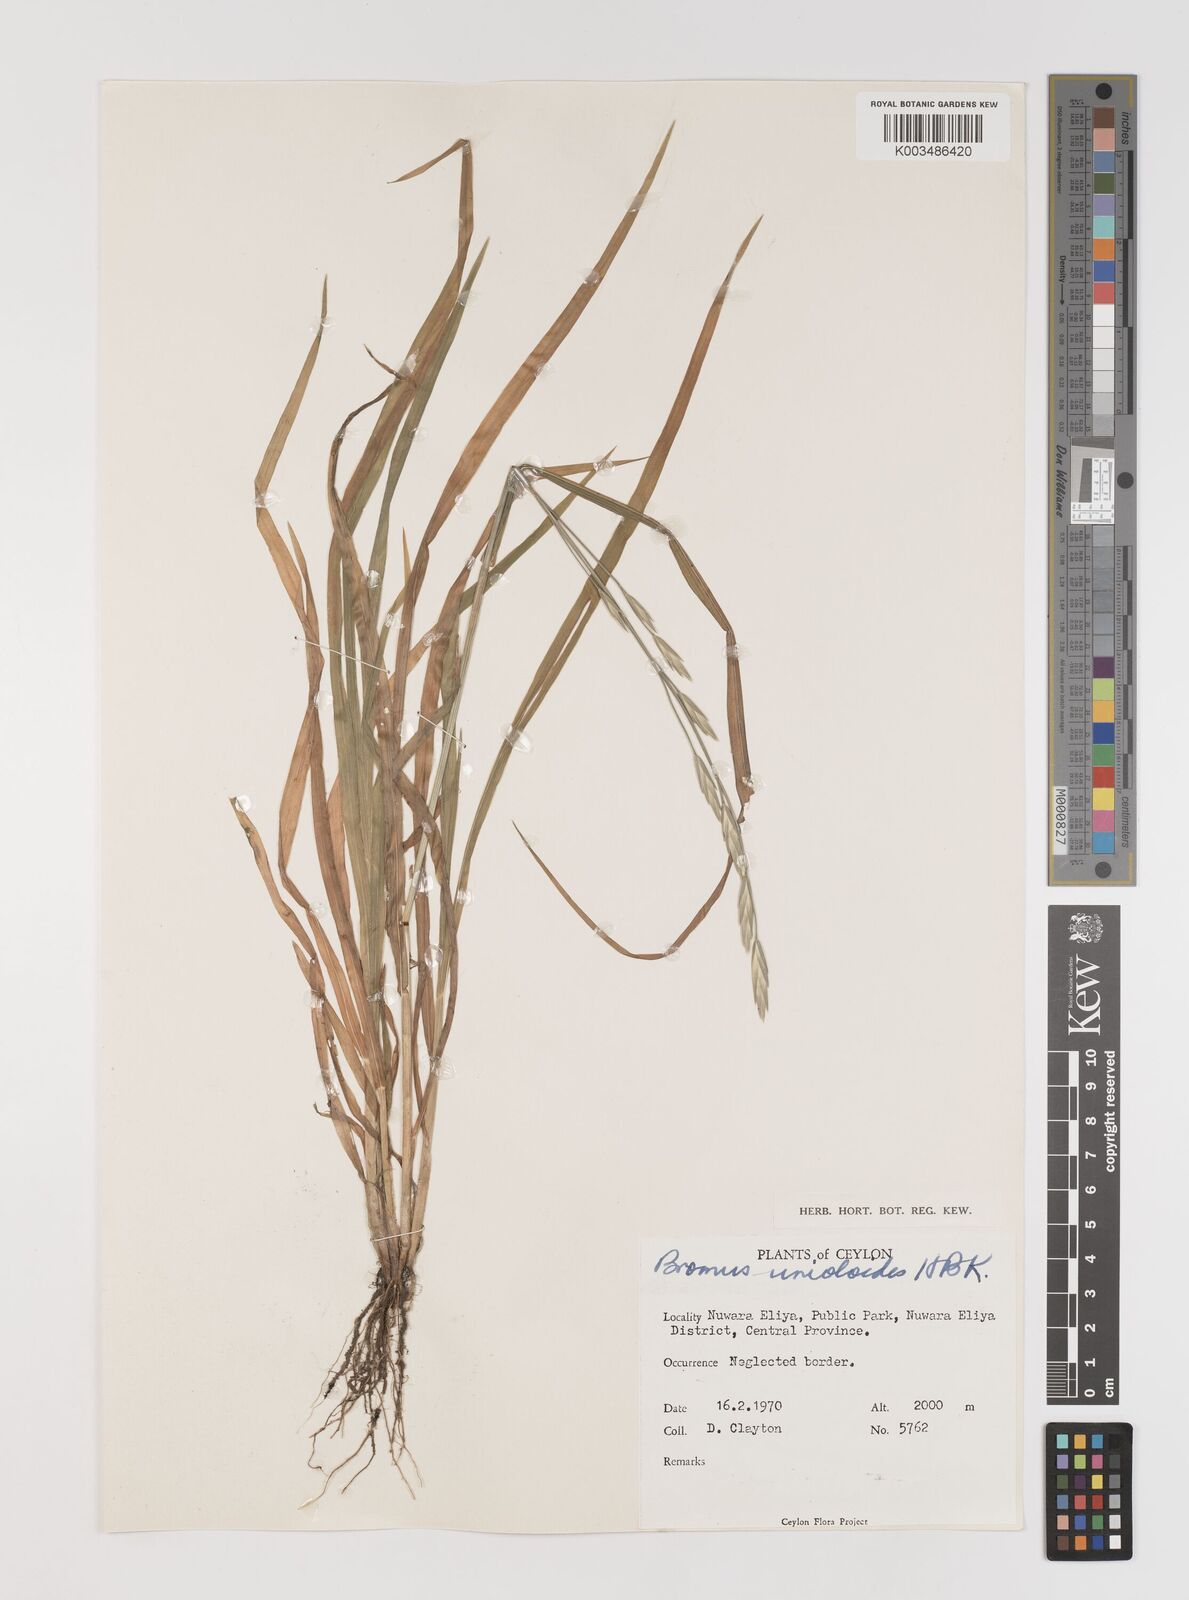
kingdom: Plantae
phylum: Tracheophyta
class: Liliopsida
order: Poales
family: Poaceae
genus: Bromus
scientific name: Bromus catharticus
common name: Rescuegrass
